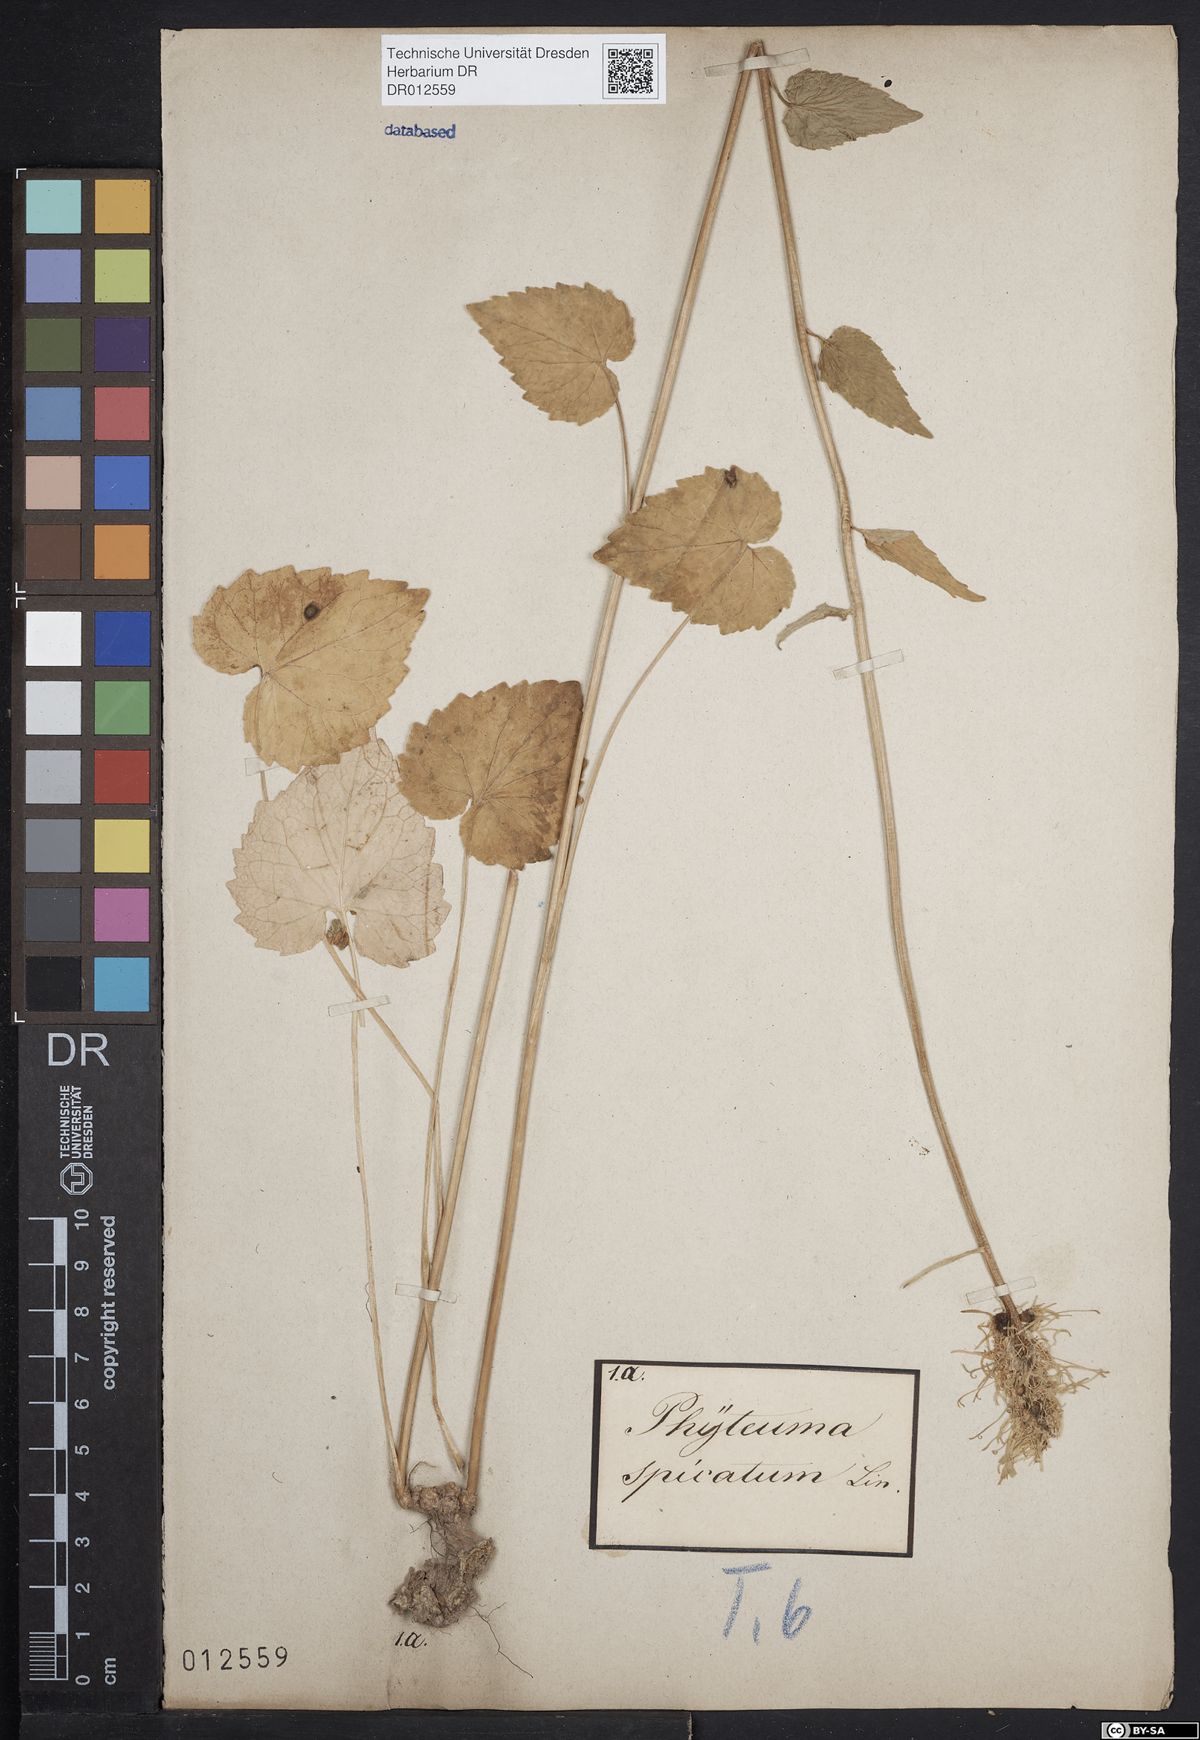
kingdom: Plantae
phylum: Tracheophyta
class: Magnoliopsida
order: Asterales
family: Campanulaceae
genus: Phyteuma
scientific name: Phyteuma spicatum
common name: Spiked rampion
